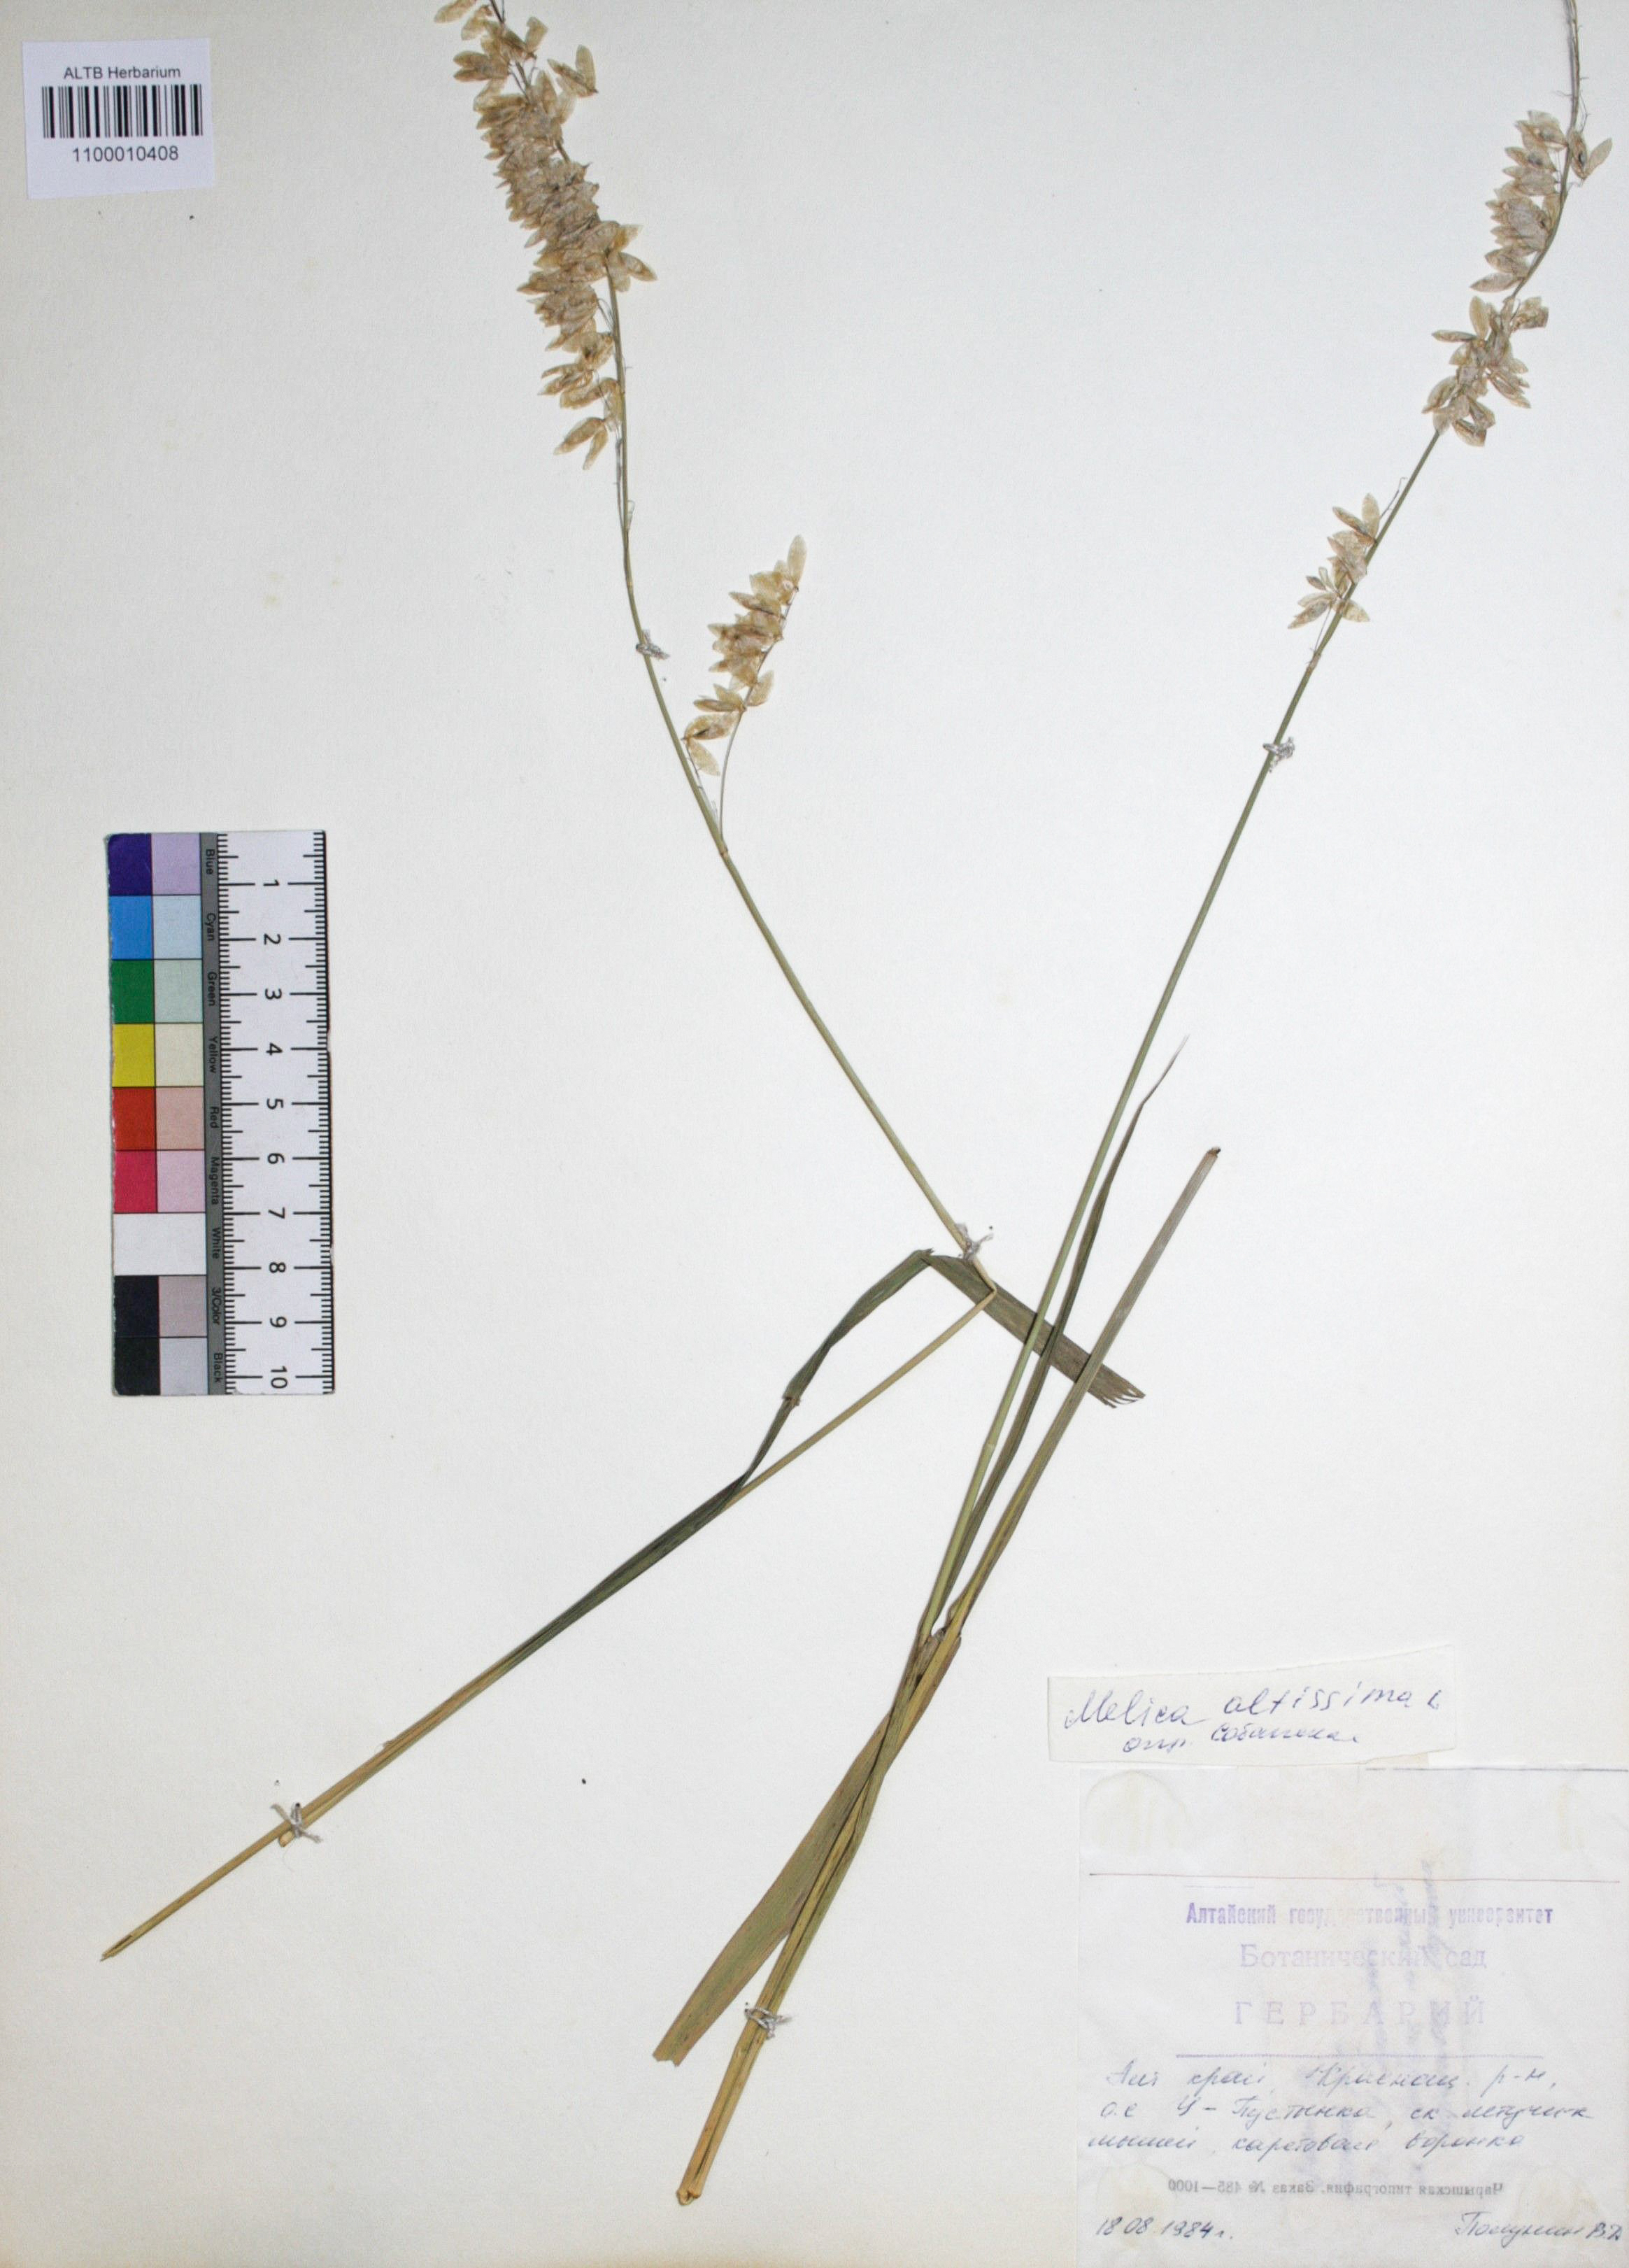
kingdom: Plantae
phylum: Tracheophyta
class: Liliopsida
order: Poales
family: Poaceae
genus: Melica
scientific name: Melica altissima
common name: Siberian melicgrass
